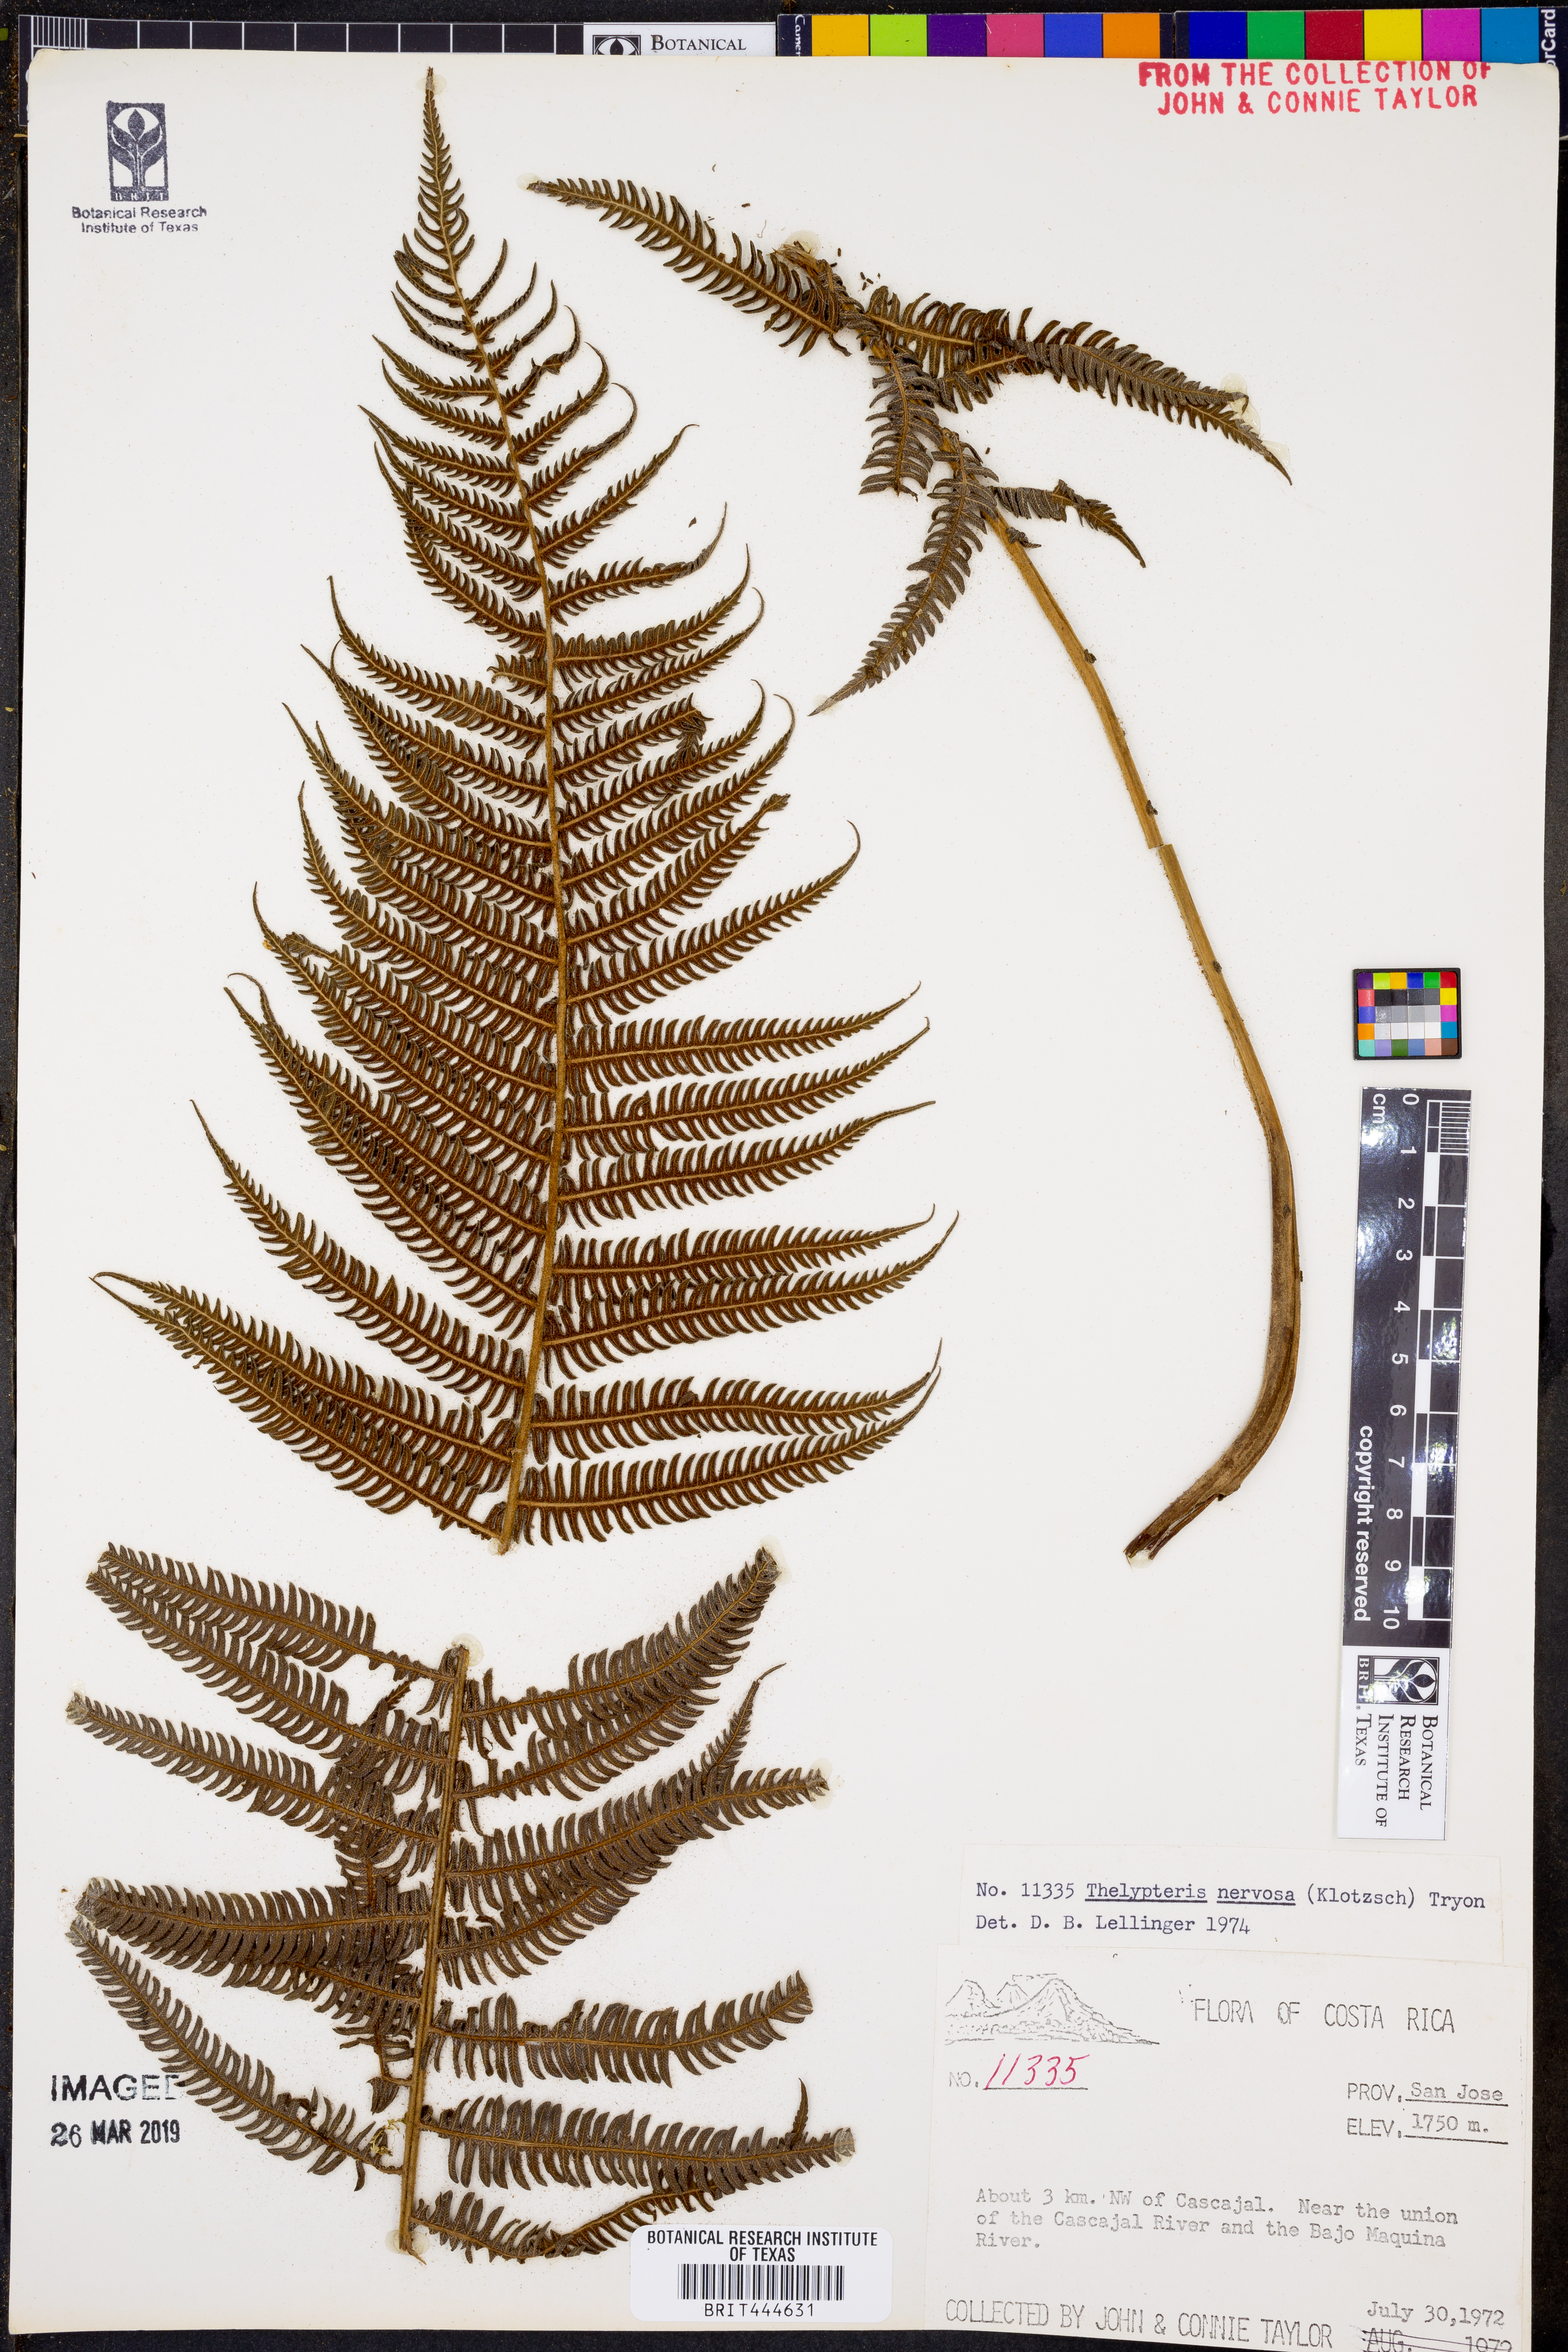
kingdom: Plantae
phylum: Tracheophyta
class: Polypodiopsida
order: Polypodiales
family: Thelypteridaceae
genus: Amauropelta
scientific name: Amauropelta rudis
